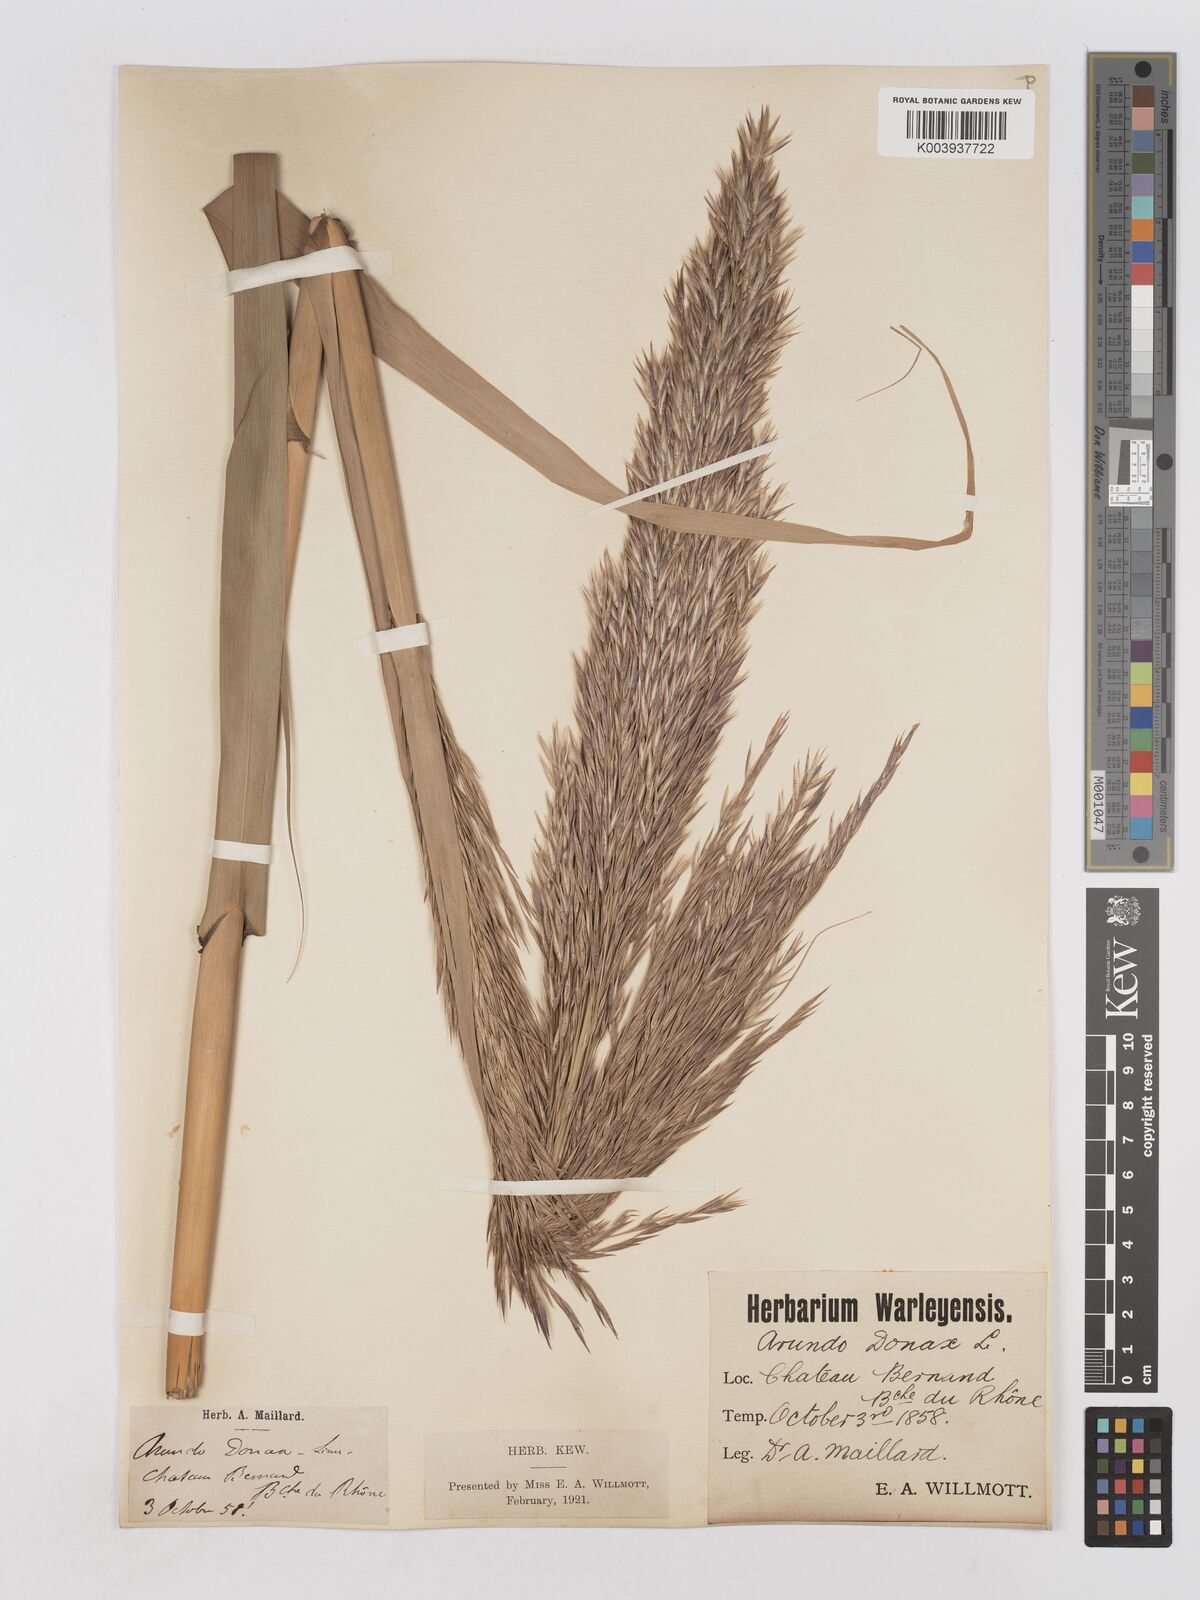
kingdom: Plantae
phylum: Tracheophyta
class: Liliopsida
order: Poales
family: Poaceae
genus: Arundo
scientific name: Arundo donax
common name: Giant reed
